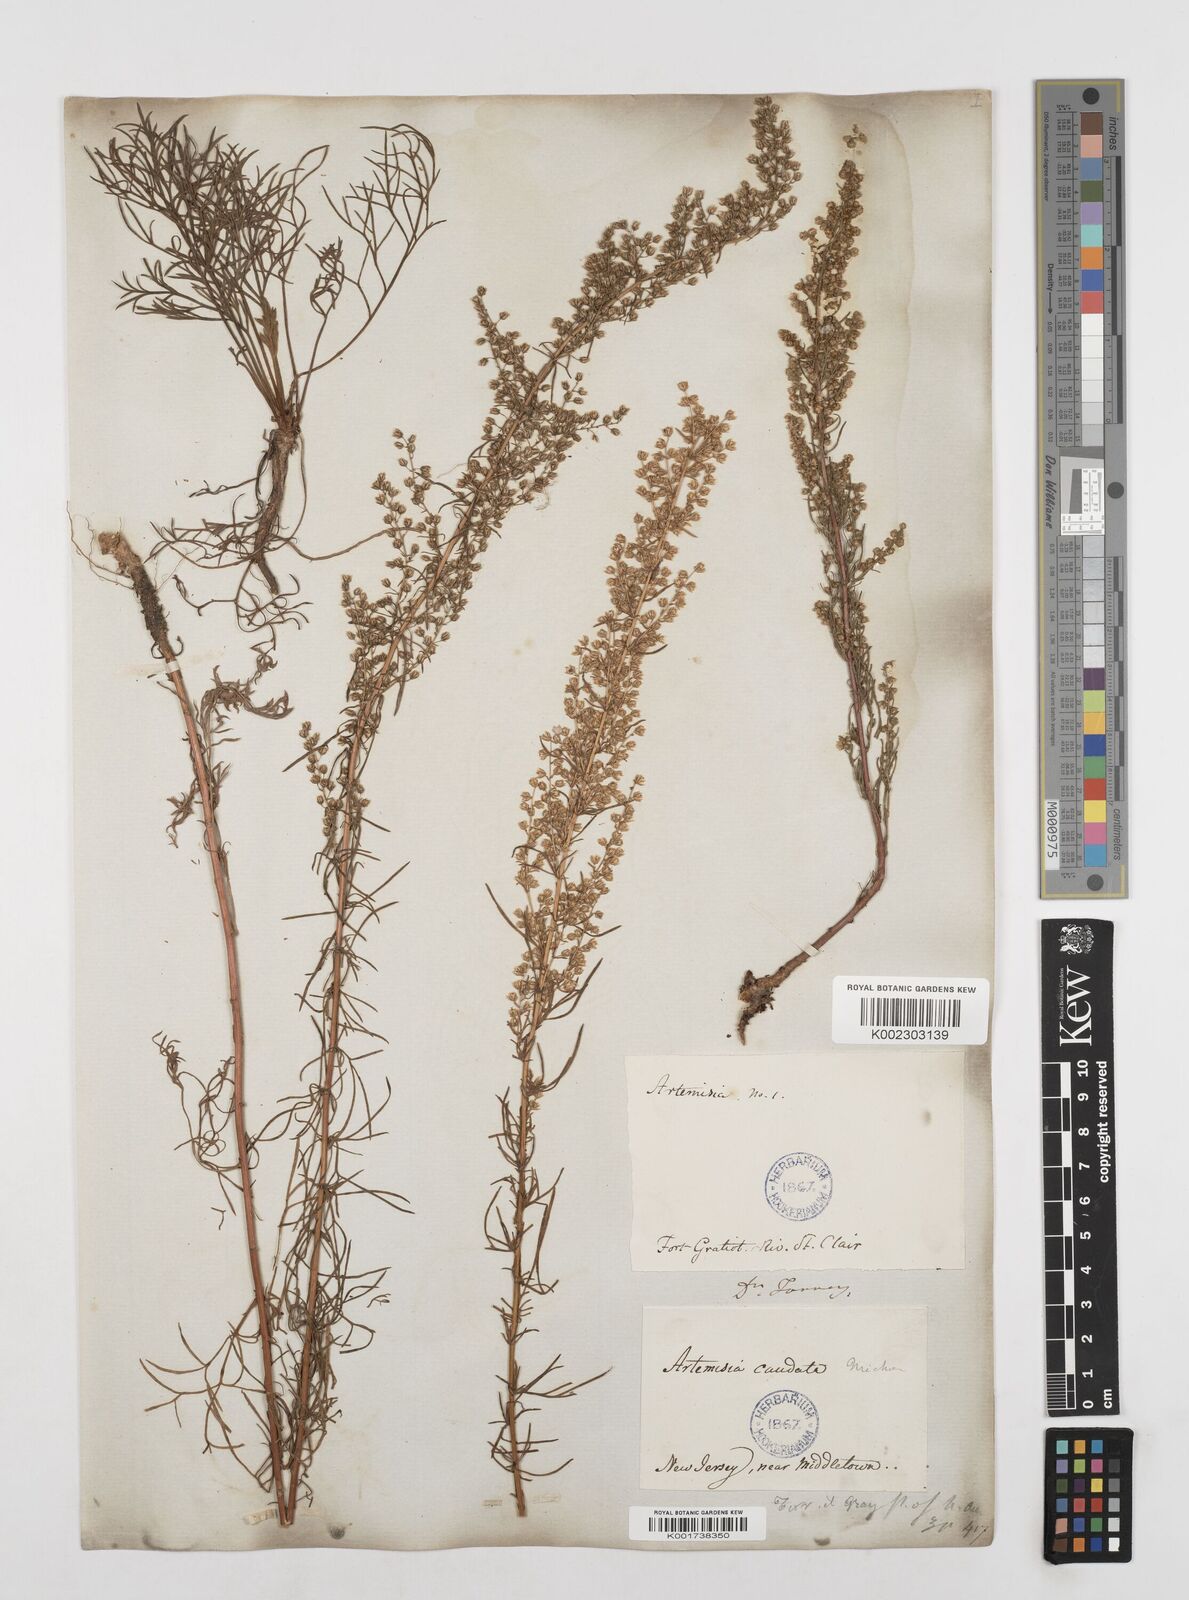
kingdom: Plantae
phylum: Tracheophyta
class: Magnoliopsida
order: Asterales
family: Asteraceae
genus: Artemisia
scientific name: Artemisia campestris
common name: Field wormwood
